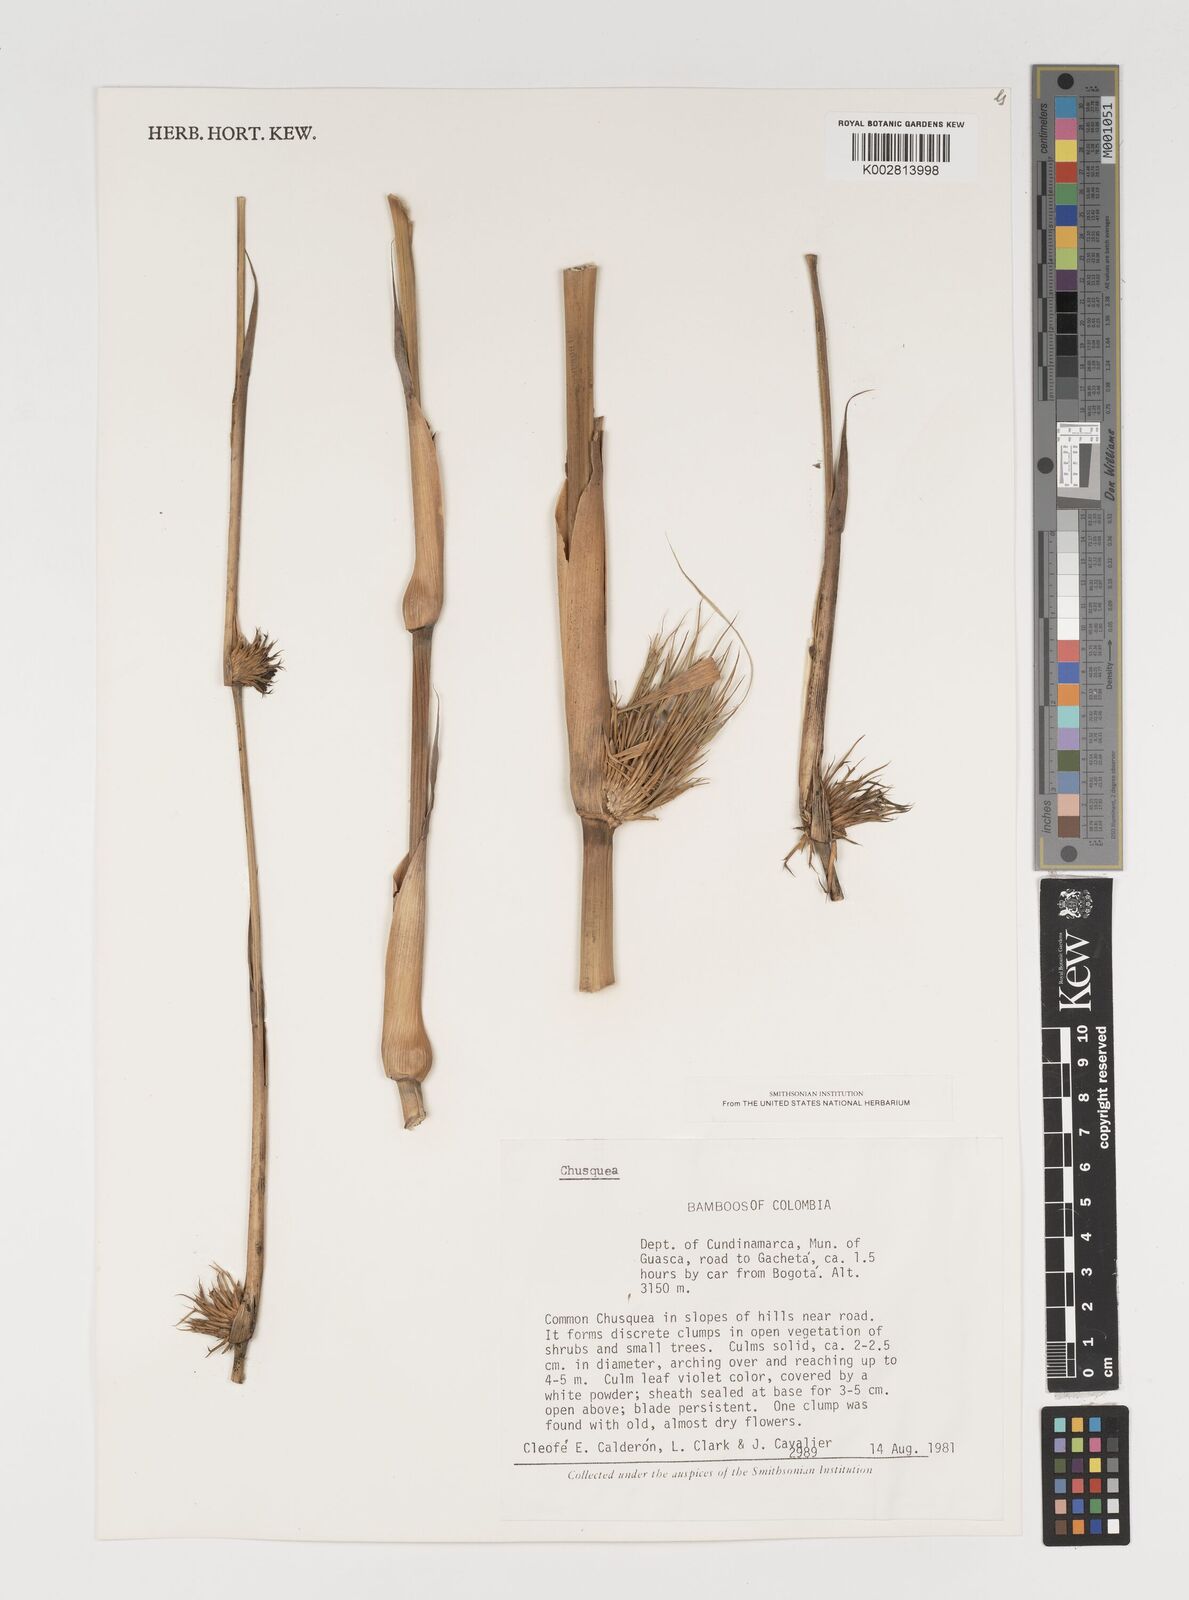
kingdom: Plantae
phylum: Tracheophyta
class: Liliopsida
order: Poales
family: Poaceae
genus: Chusquea
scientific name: Chusquea
